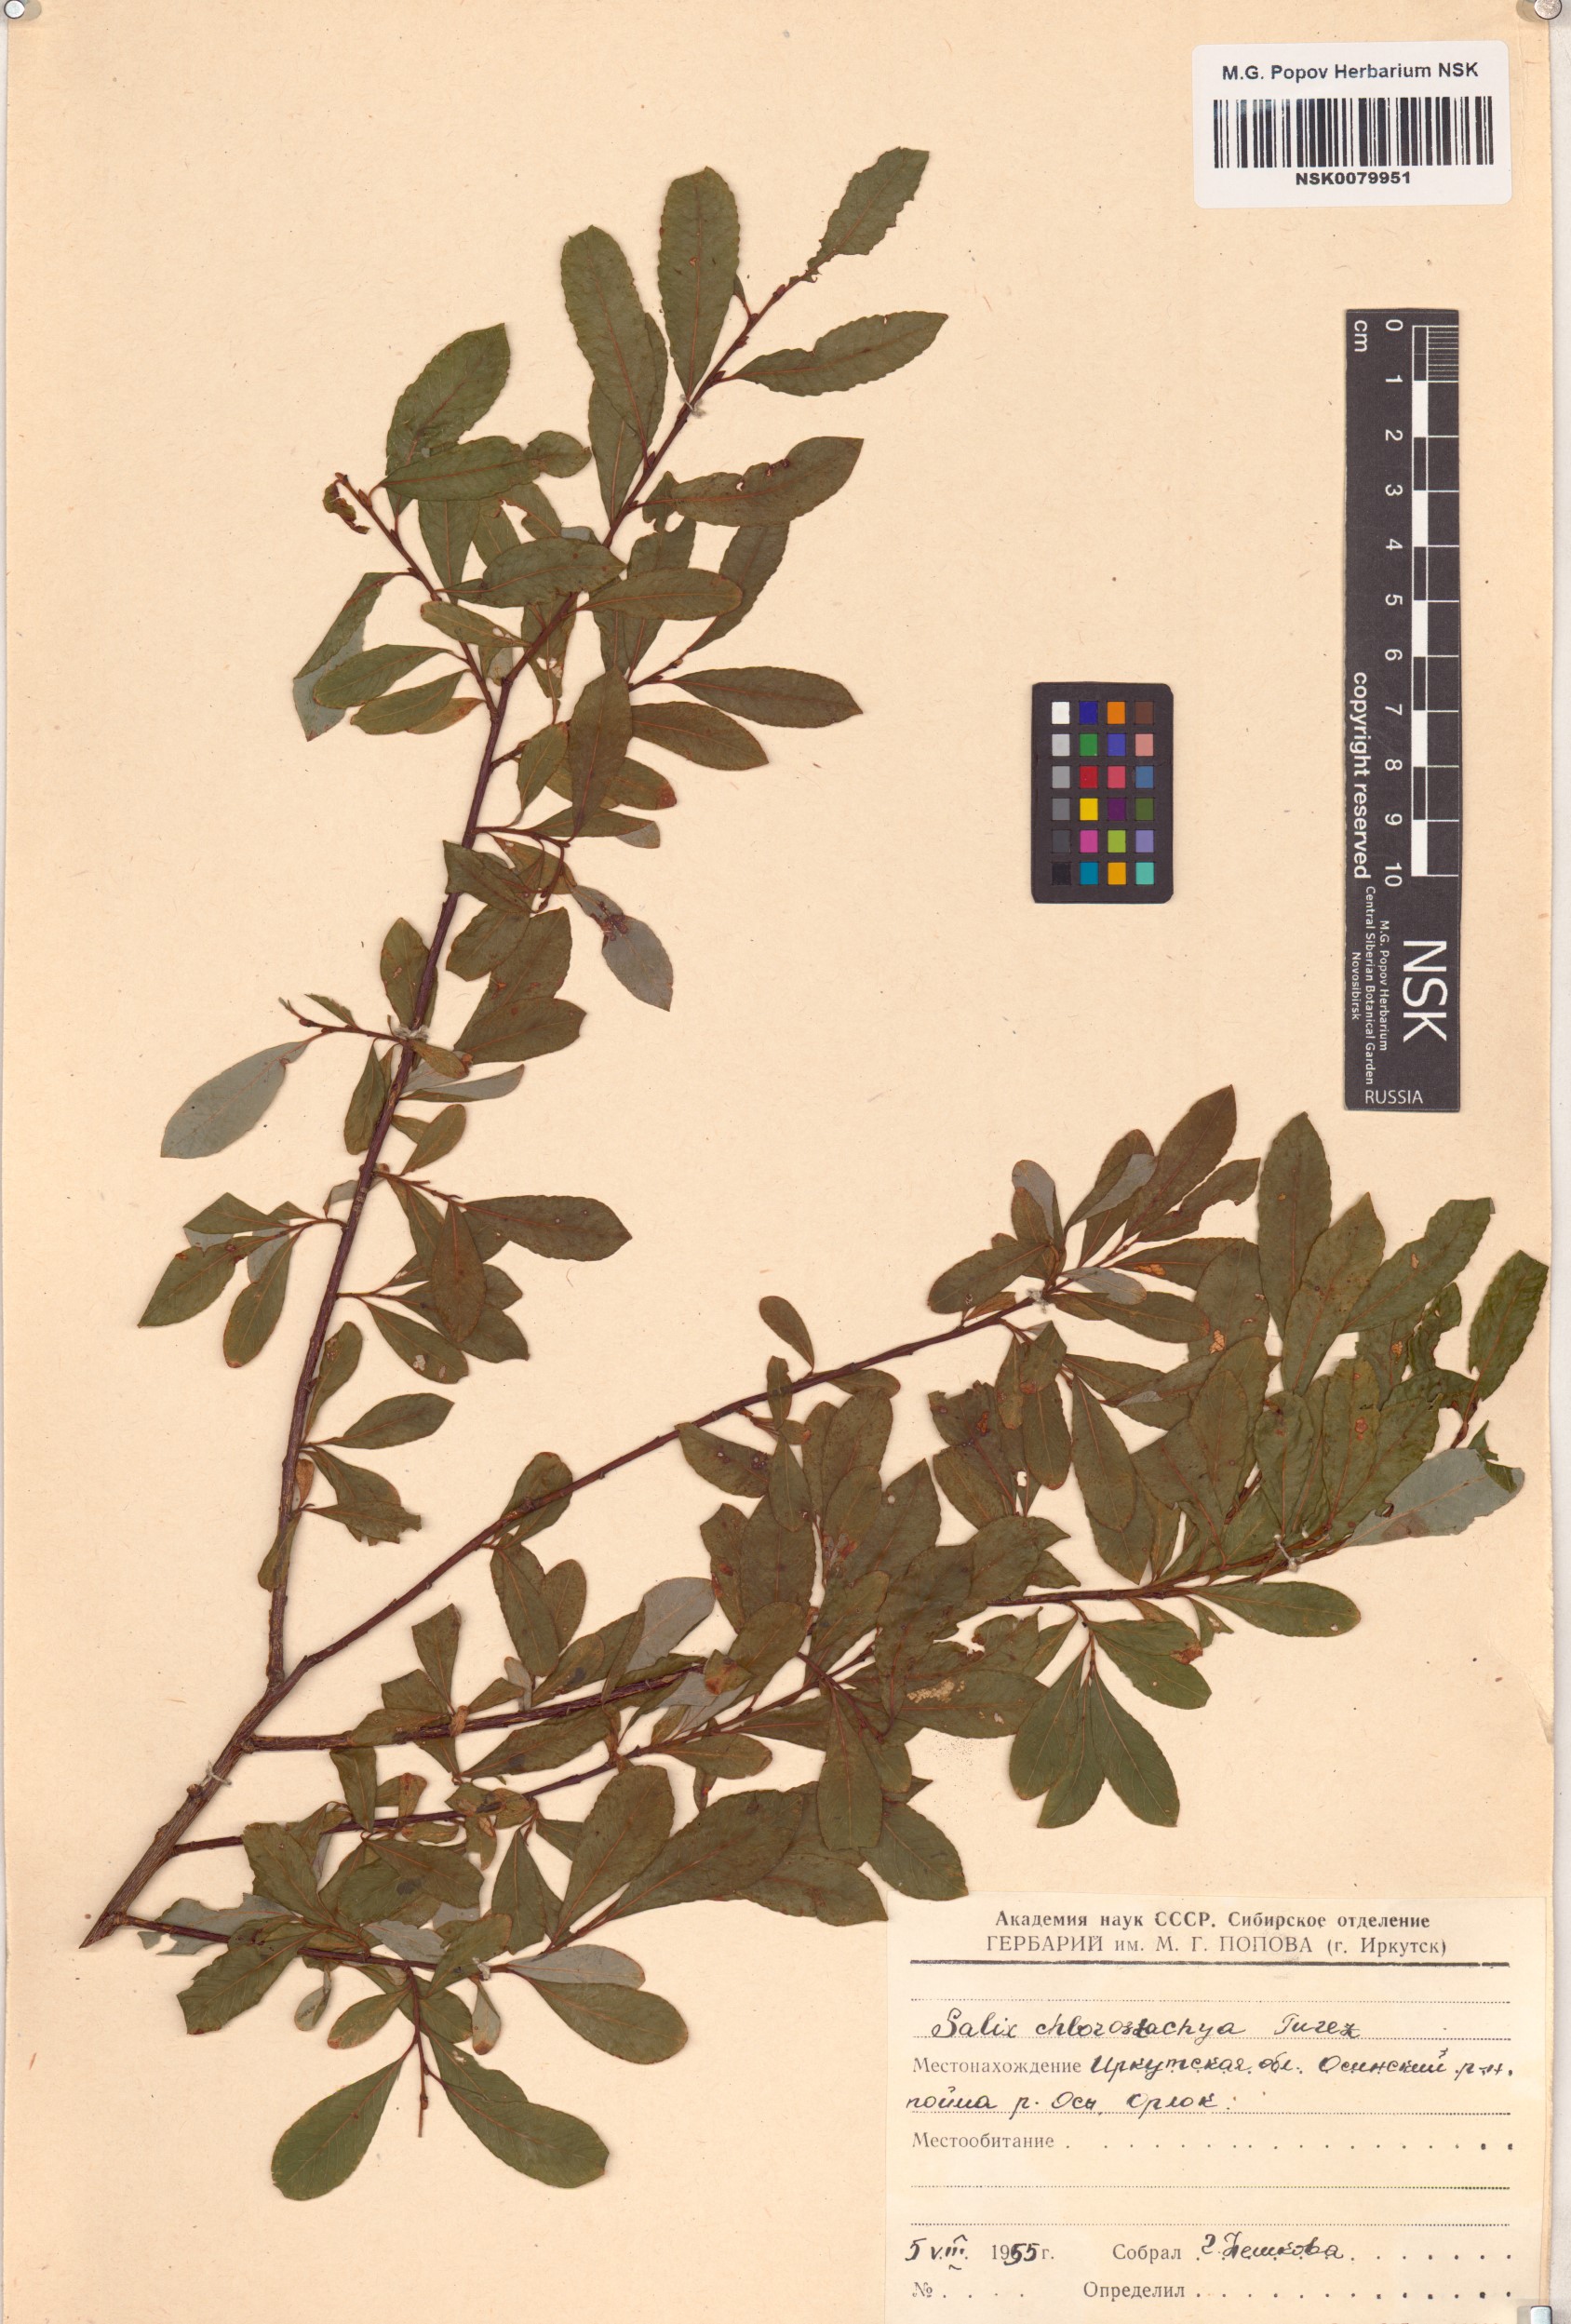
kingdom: Plantae
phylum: Tracheophyta
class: Magnoliopsida
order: Malpighiales
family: Salicaceae
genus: Salix
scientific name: Salix rhamnifolia
